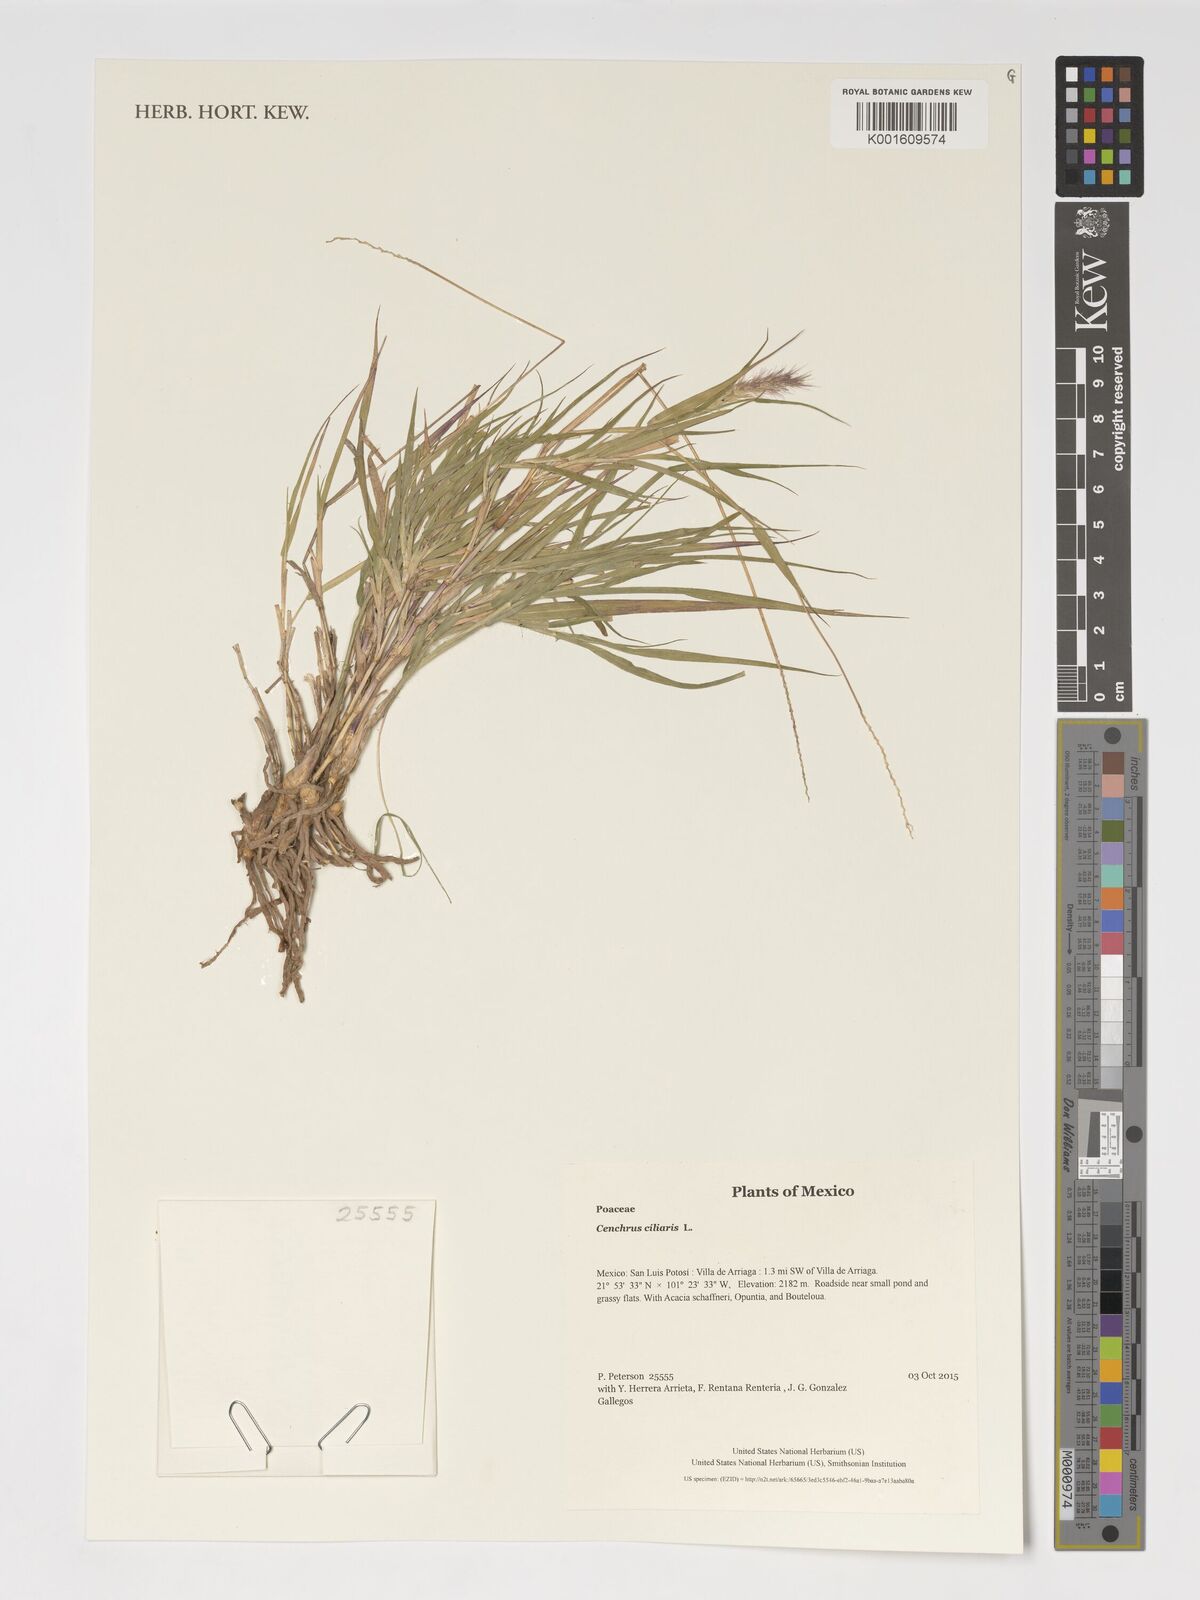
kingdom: Plantae
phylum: Tracheophyta
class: Liliopsida
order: Poales
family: Poaceae
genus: Cenchrus
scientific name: Cenchrus ciliaris
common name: Buffelgrass
